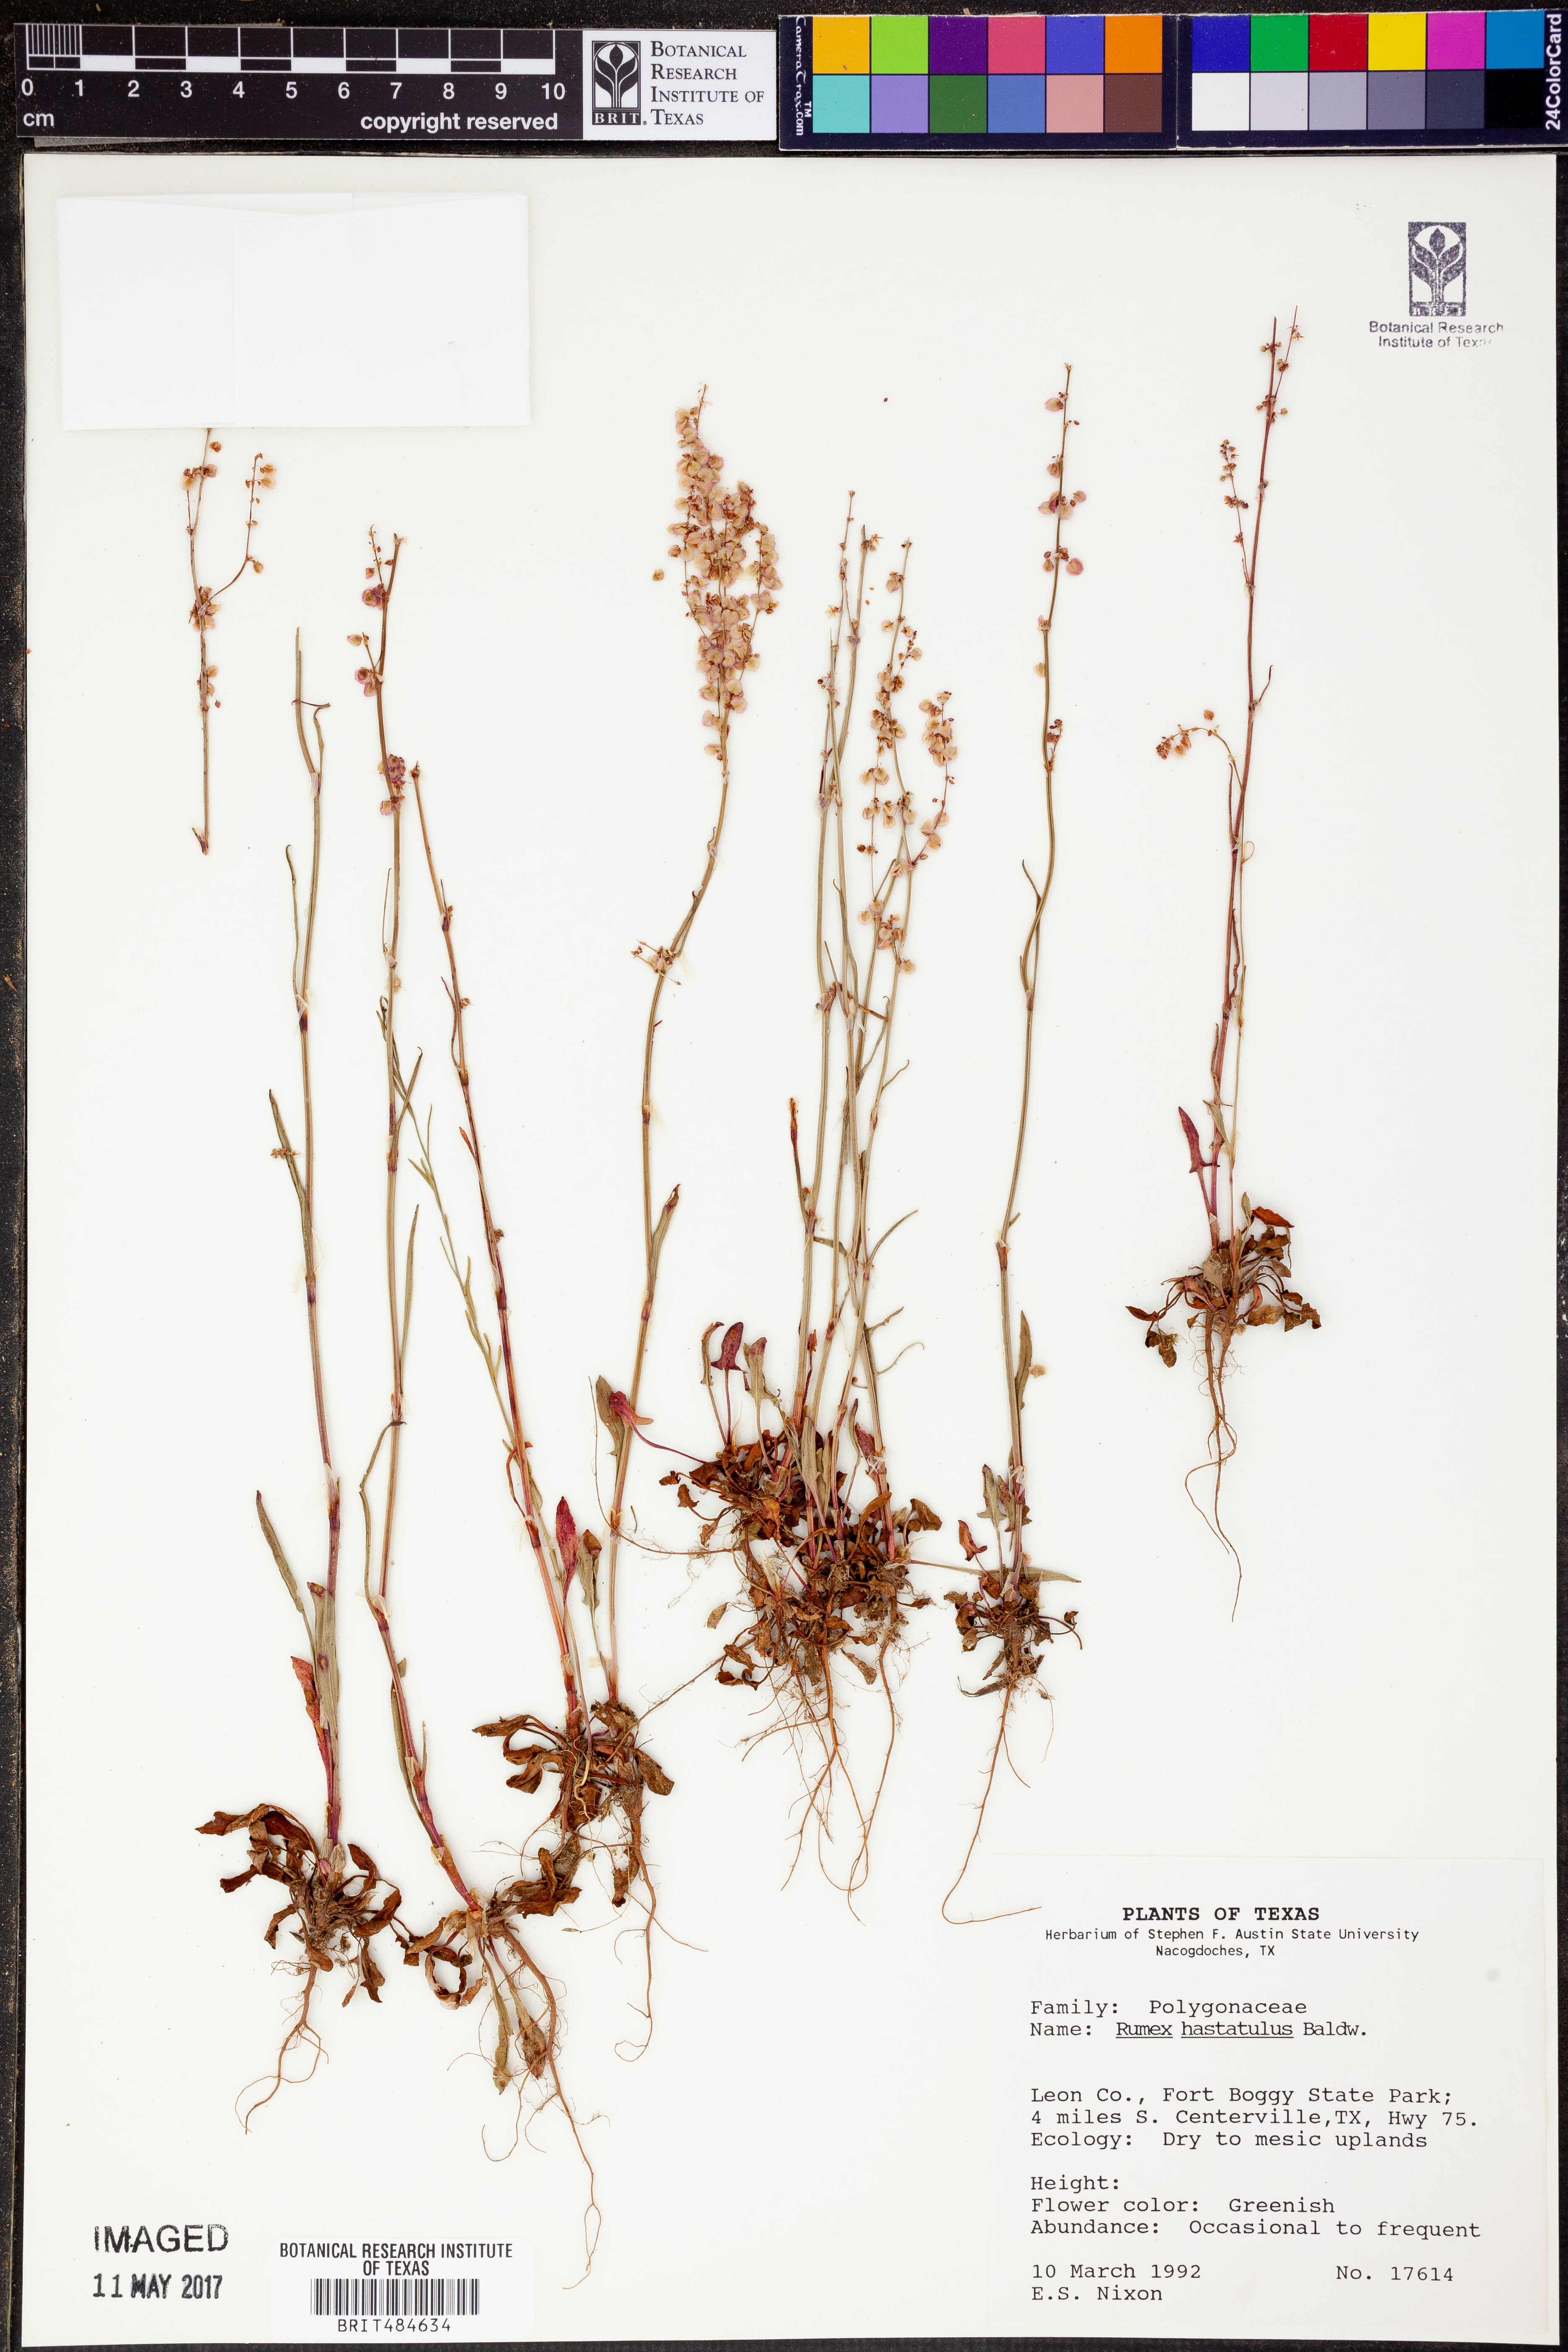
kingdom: Plantae
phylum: Tracheophyta
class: Magnoliopsida
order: Caryophyllales
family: Polygonaceae
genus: Rumex
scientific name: Rumex hastatulus
